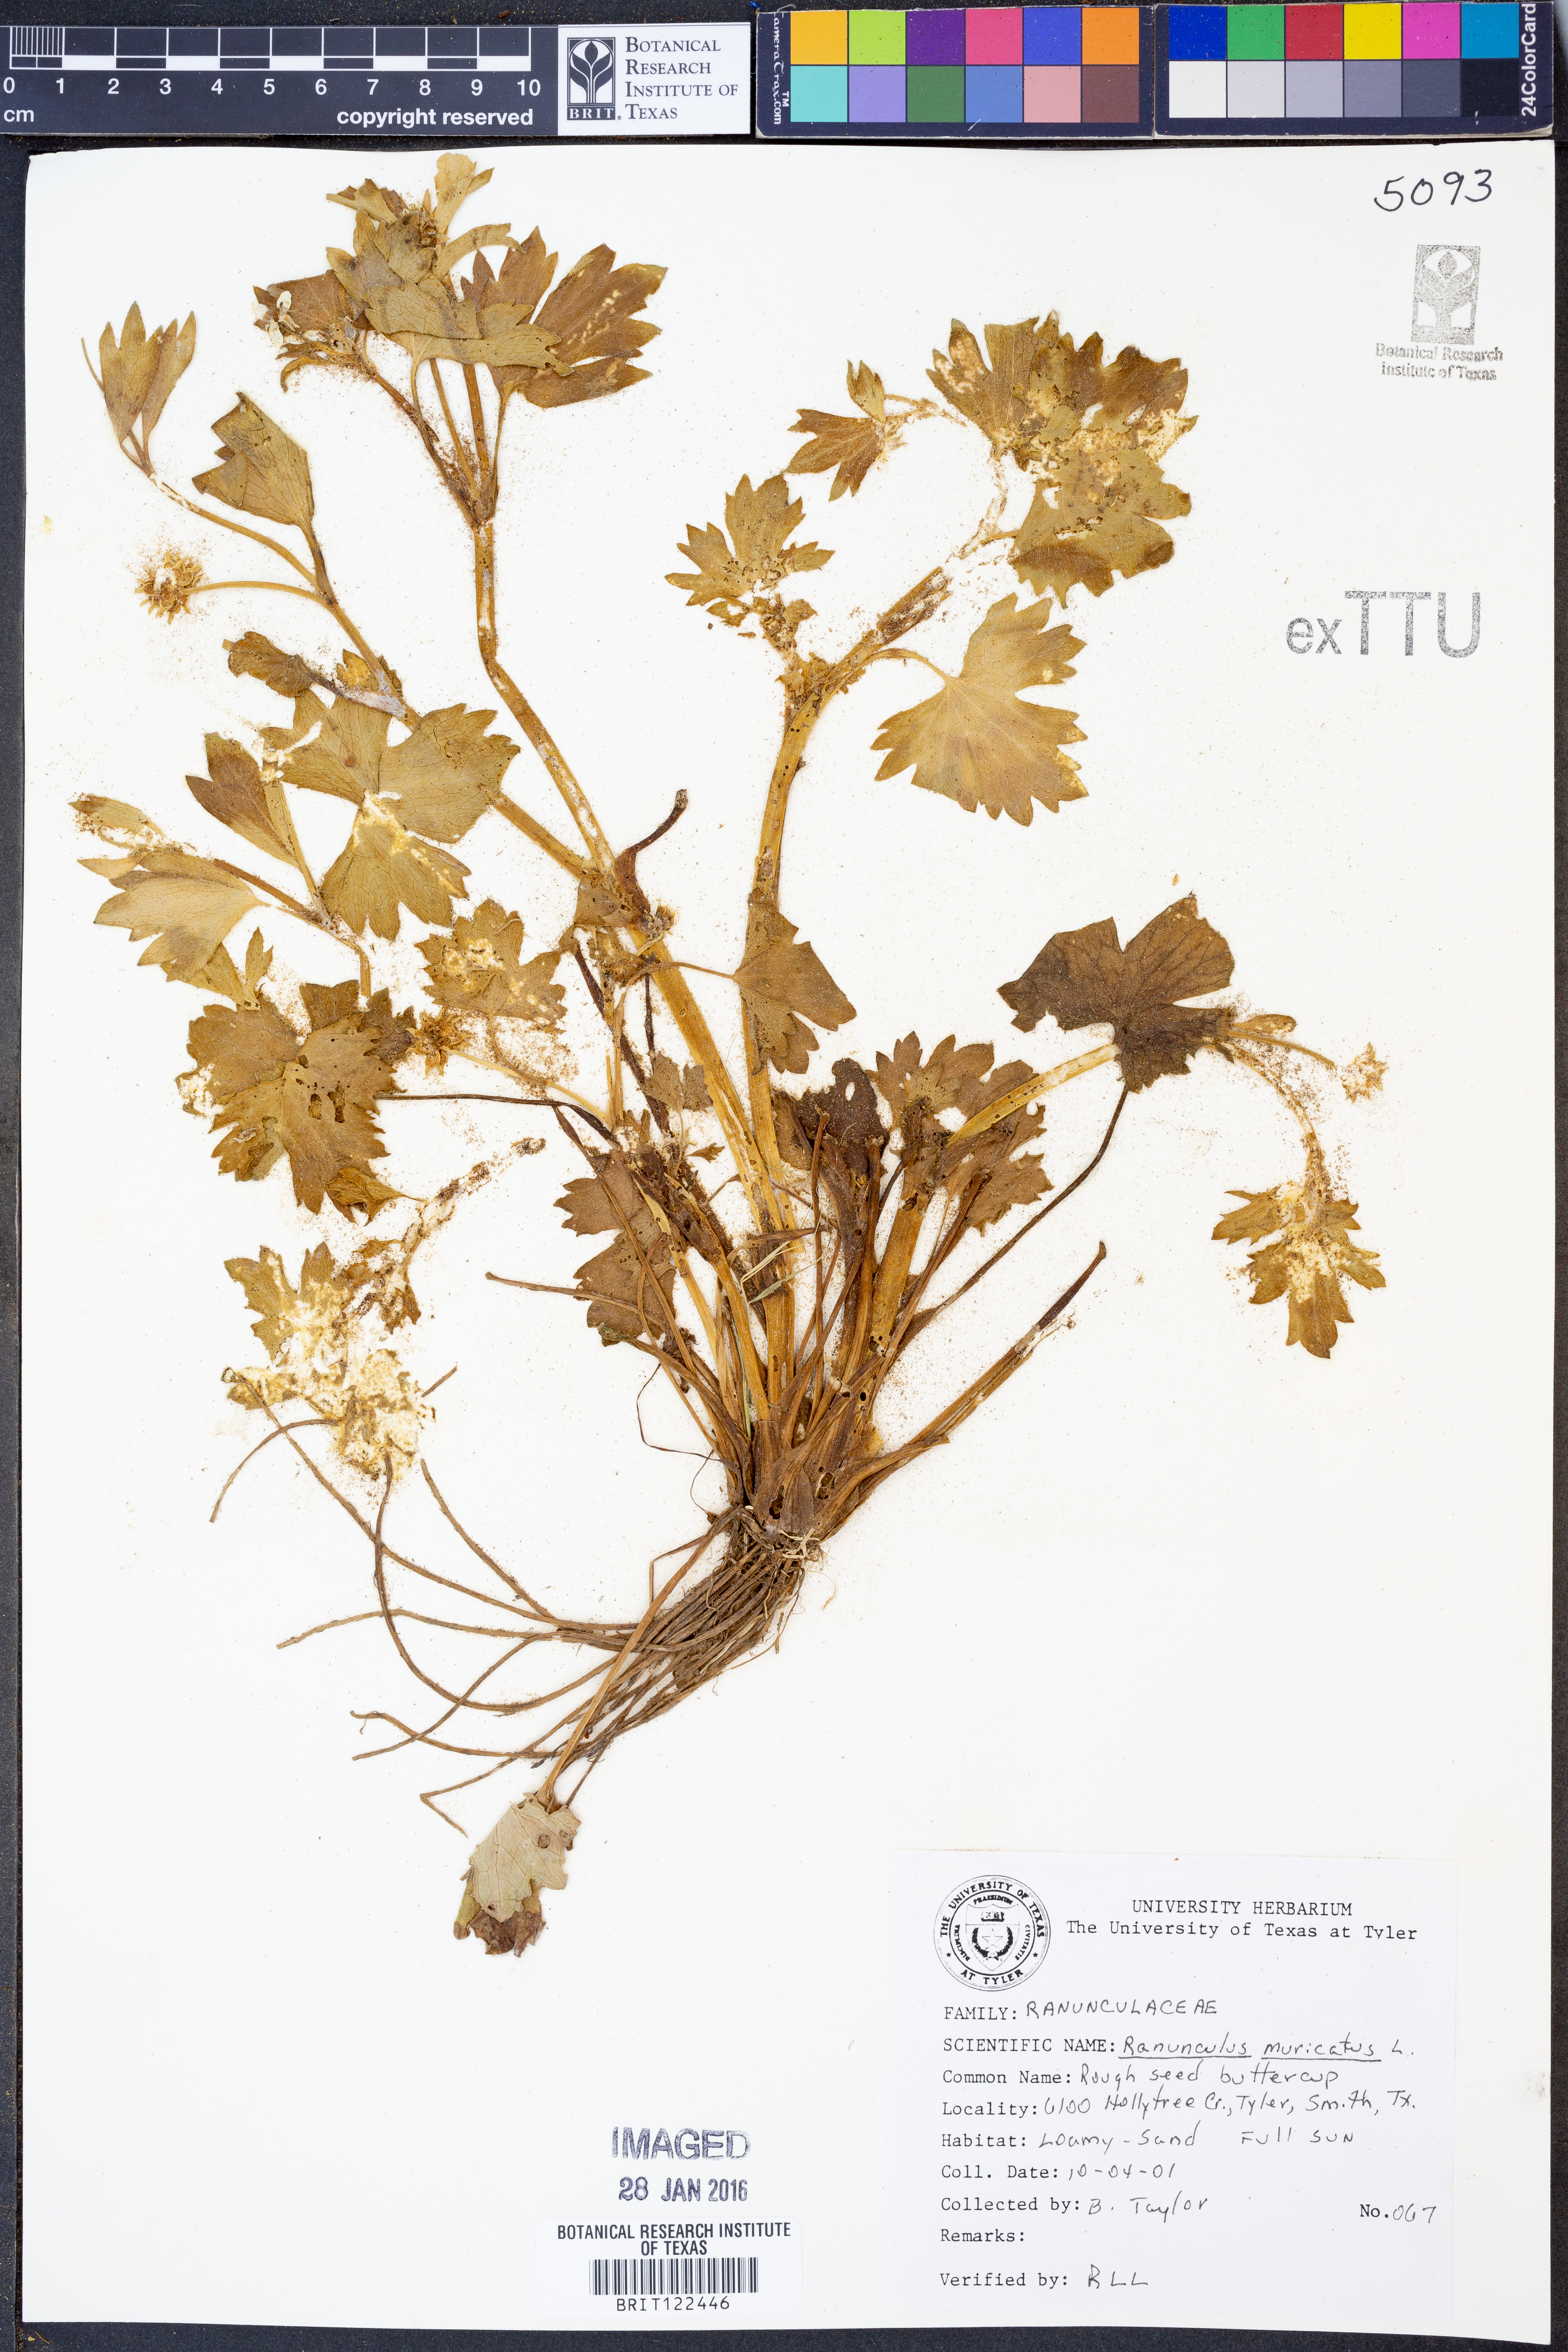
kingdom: Plantae
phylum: Tracheophyta
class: Magnoliopsida
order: Ranunculales
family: Ranunculaceae
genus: Ranunculus
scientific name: Ranunculus muricatus
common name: Rough-fruited buttercup
